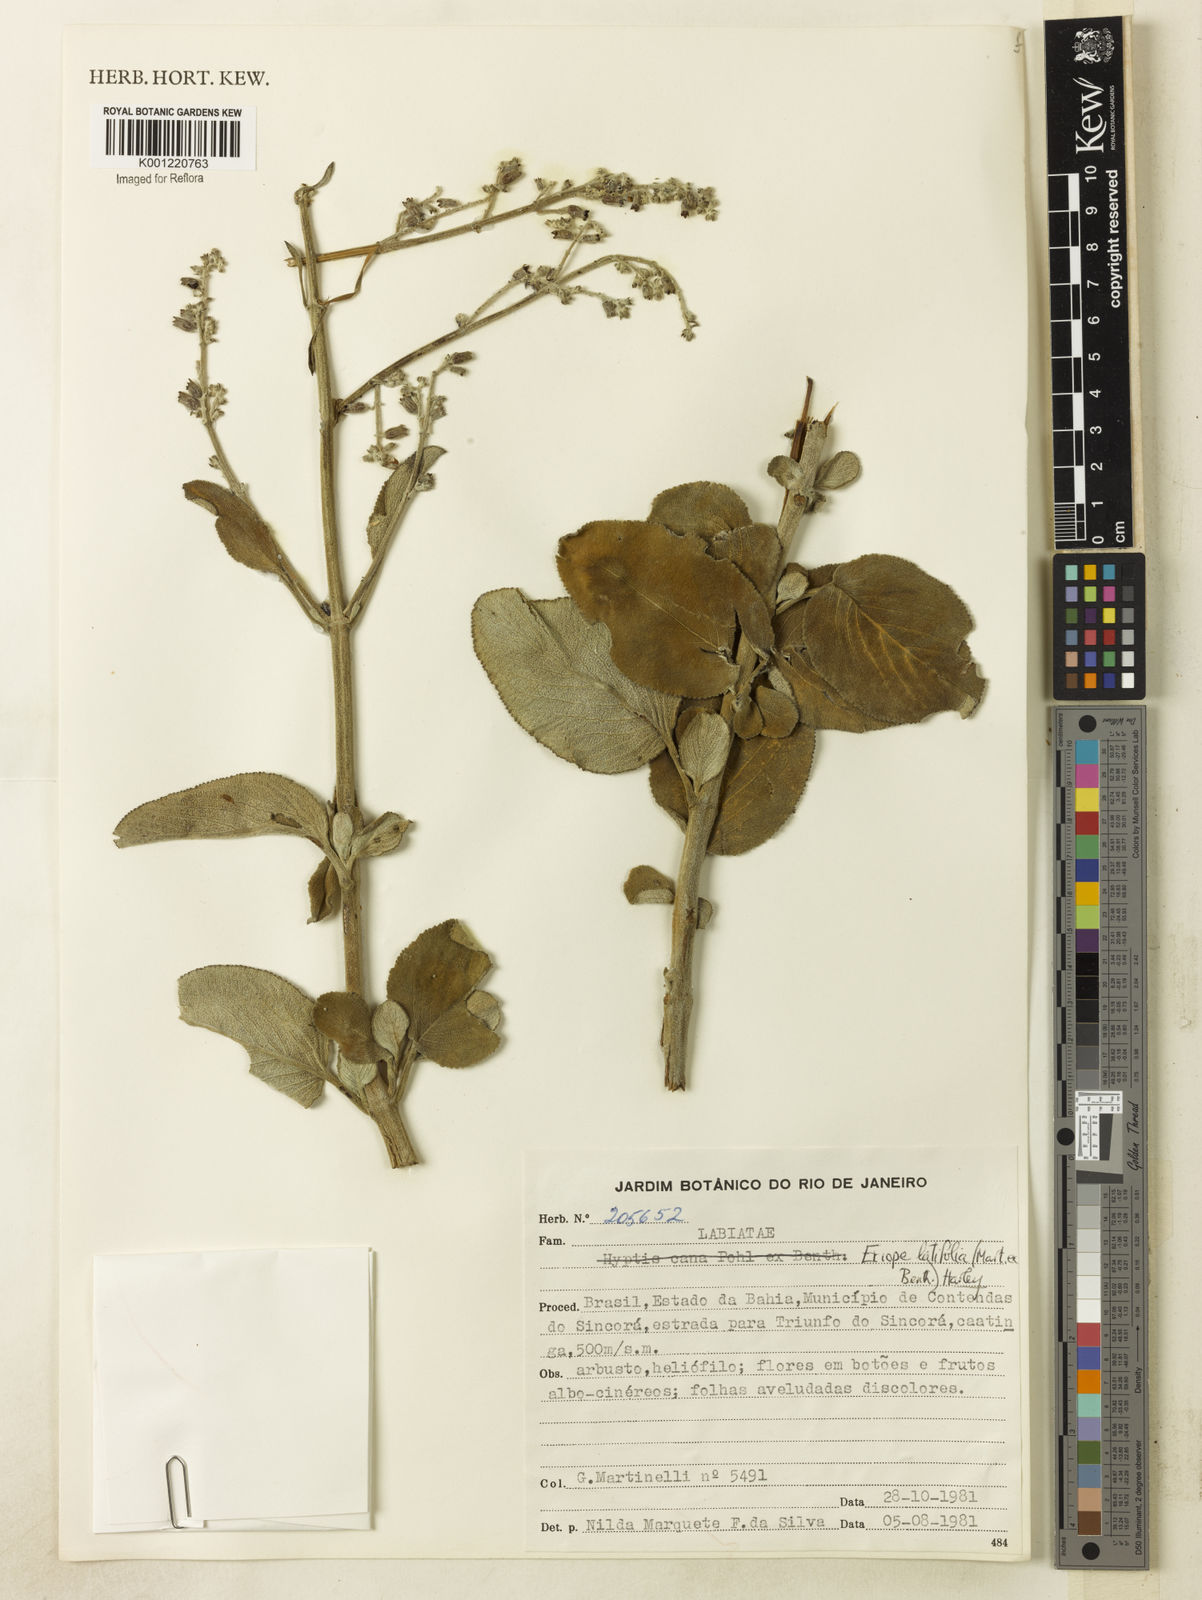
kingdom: Plantae
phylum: Tracheophyta
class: Magnoliopsida
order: Lamiales
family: Lamiaceae
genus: Eriope
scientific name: Eriope latifolia
